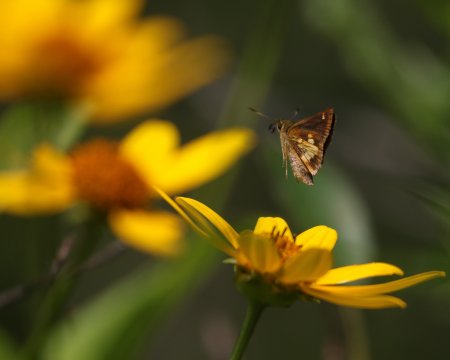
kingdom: Animalia
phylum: Arthropoda
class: Insecta
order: Lepidoptera
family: Hesperiidae
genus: Poanes
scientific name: Poanes massasoit
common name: Mulberry Wing
